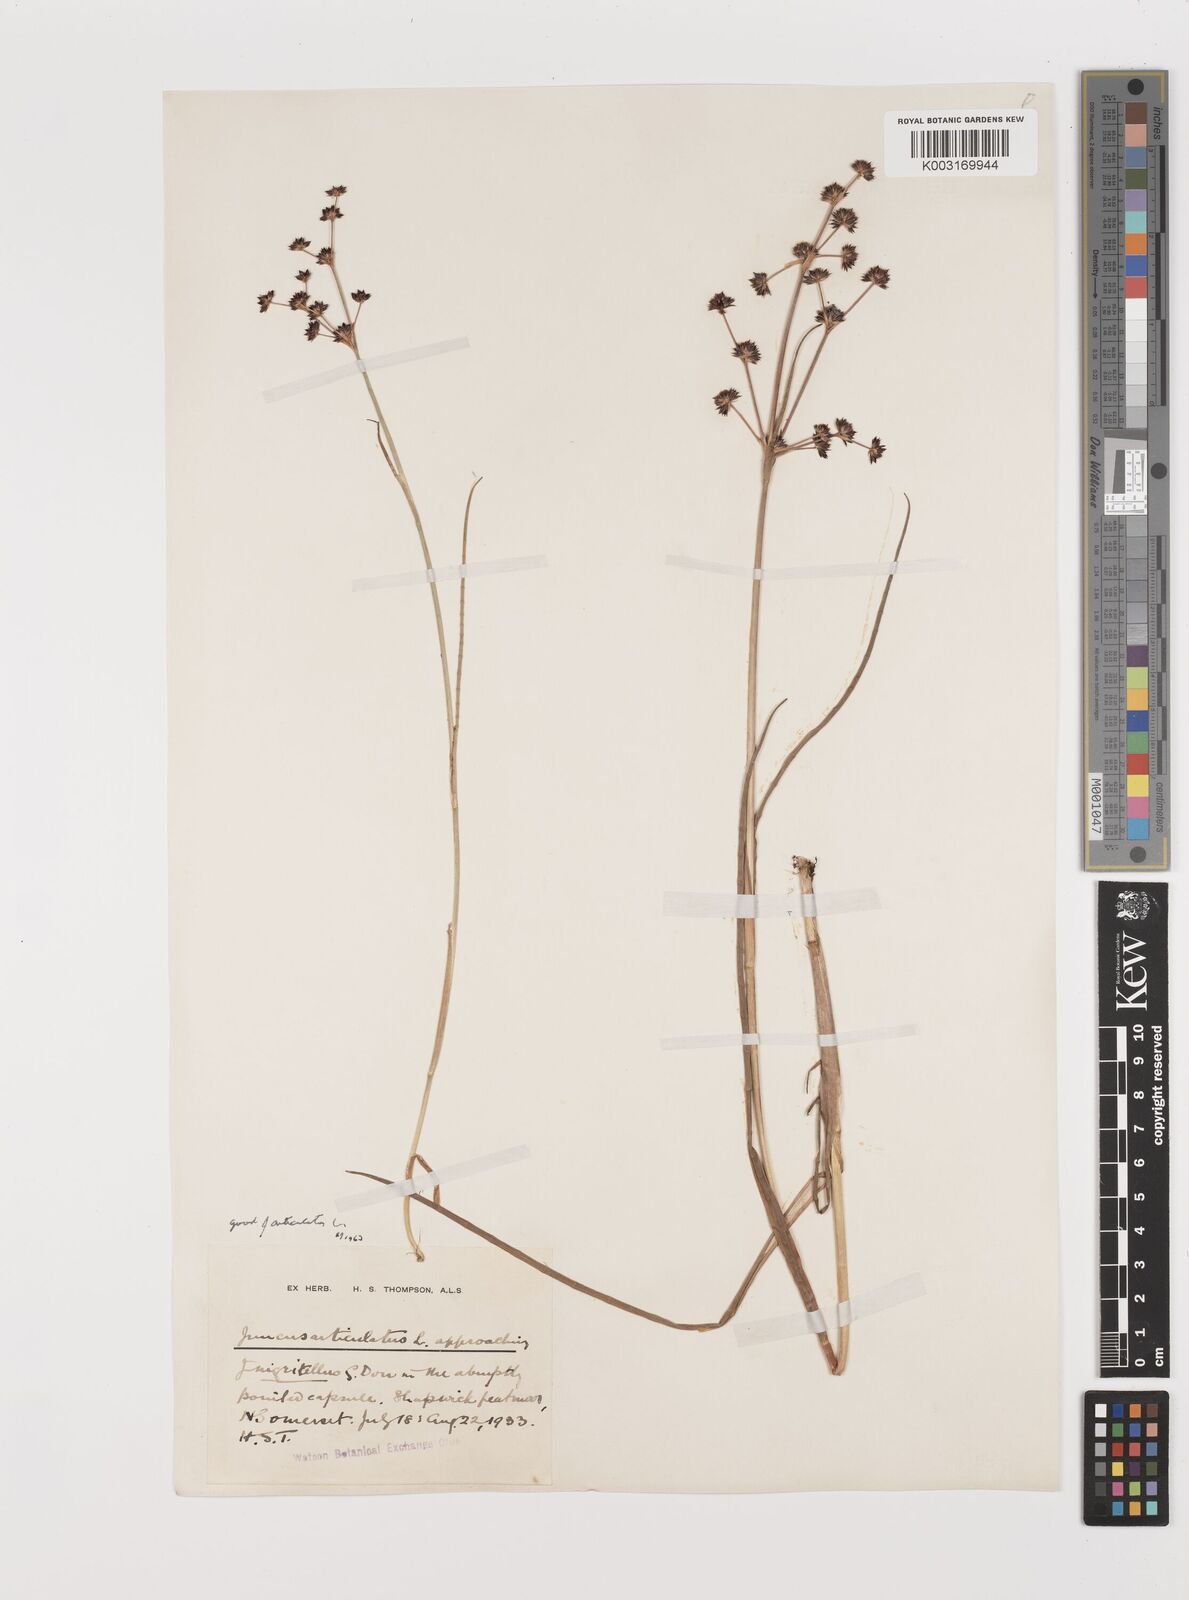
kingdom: Plantae
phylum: Tracheophyta
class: Liliopsida
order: Poales
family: Juncaceae
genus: Juncus
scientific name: Juncus articulatus
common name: Jointed rush
